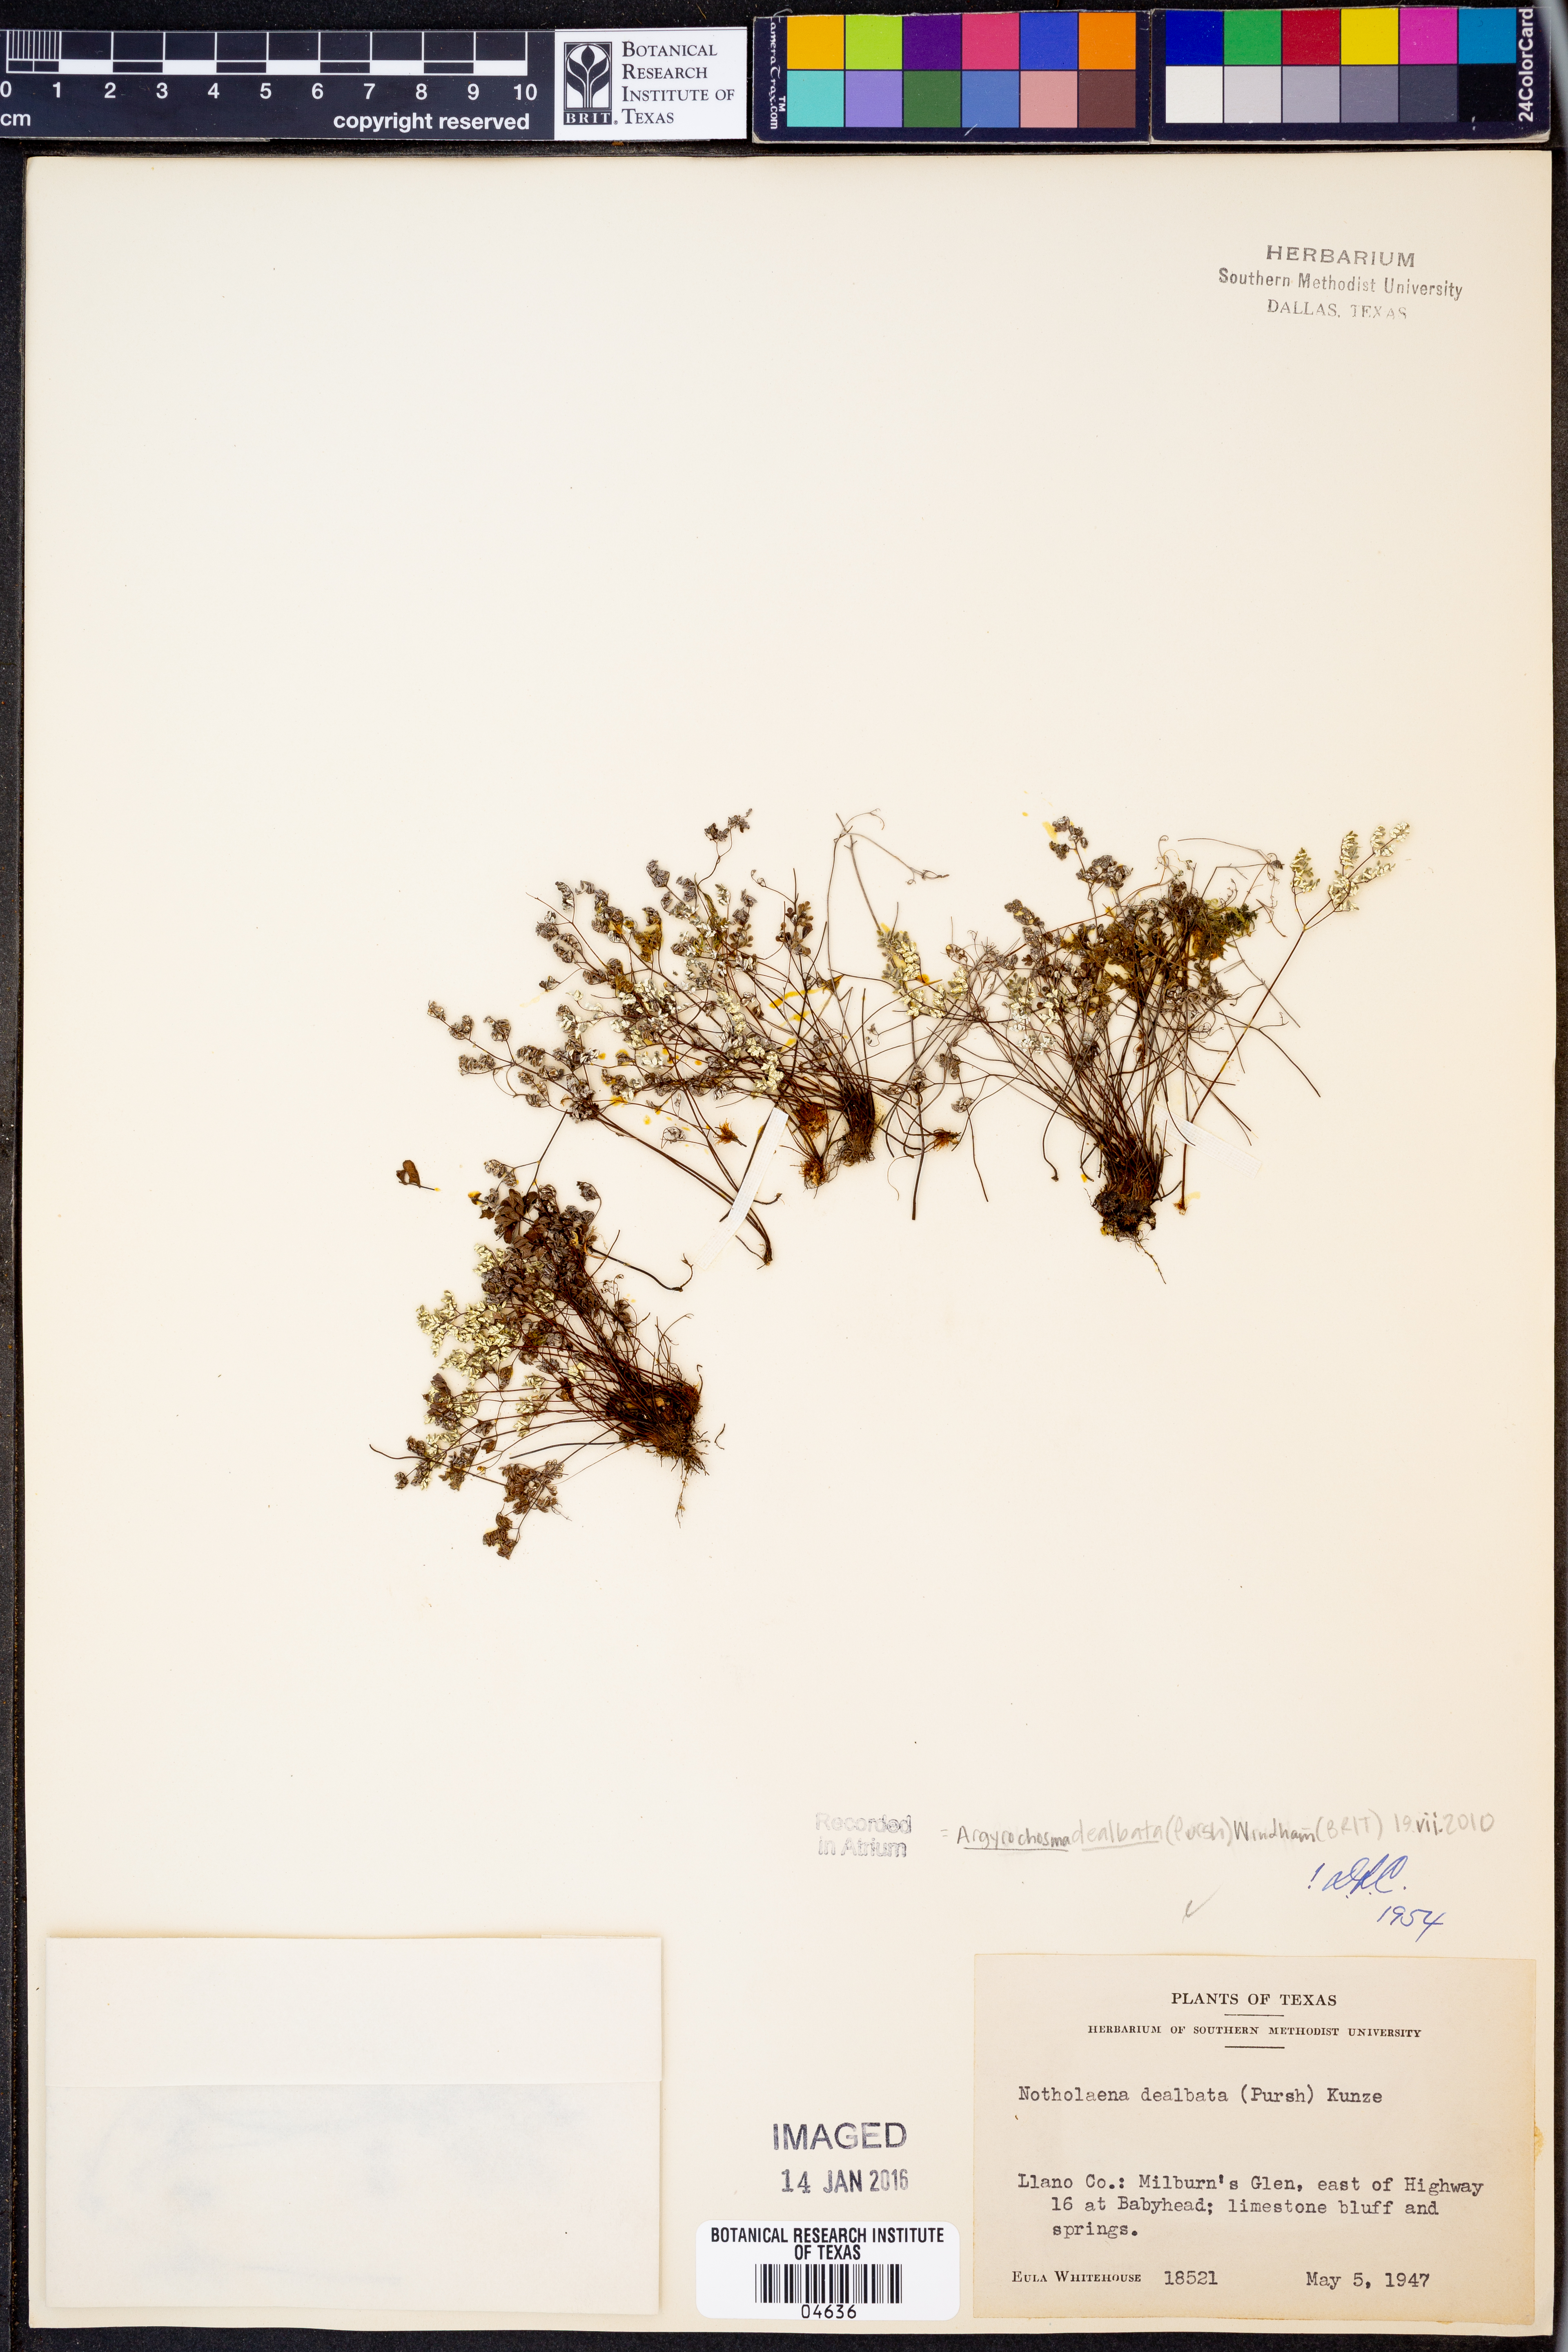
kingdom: Plantae
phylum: Tracheophyta
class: Polypodiopsida
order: Polypodiales
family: Pteridaceae
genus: Argyrochosma
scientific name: Argyrochosma dealbata
